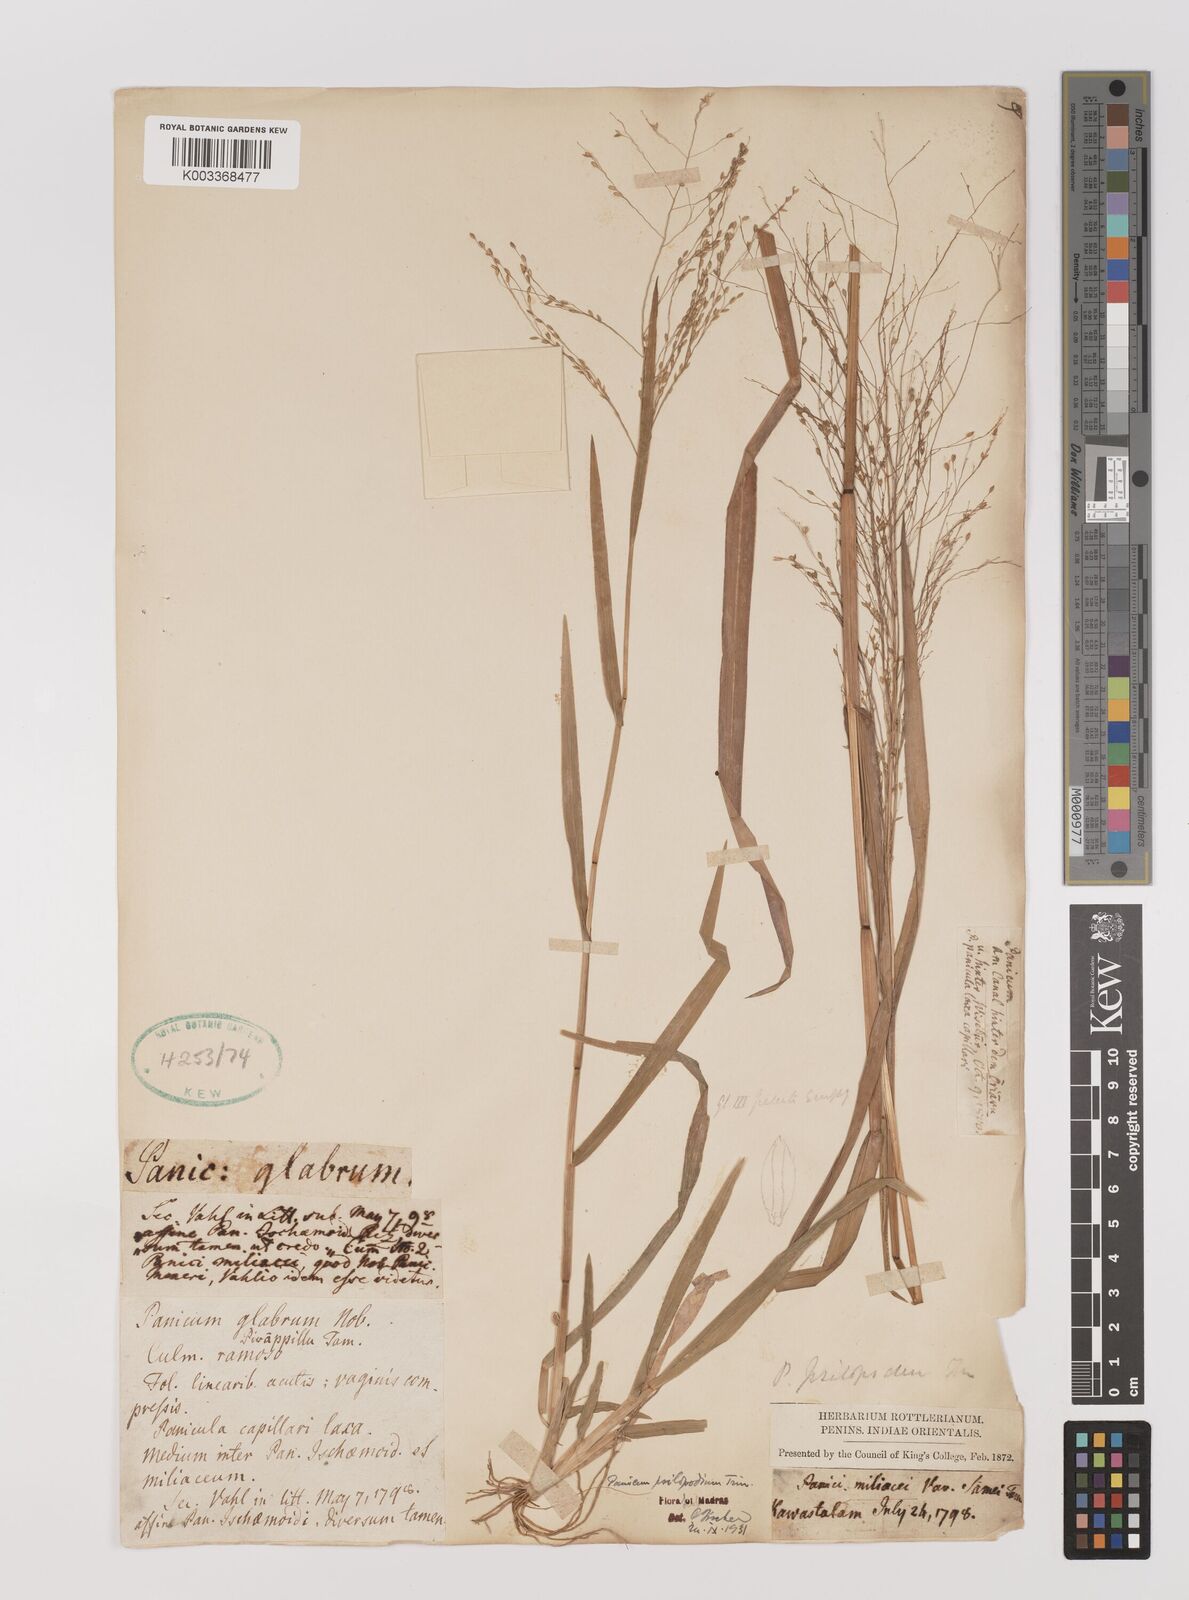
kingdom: Plantae
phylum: Tracheophyta
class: Liliopsida
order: Poales
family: Poaceae
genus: Panicum
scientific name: Panicum sumatrense
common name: Little millet
